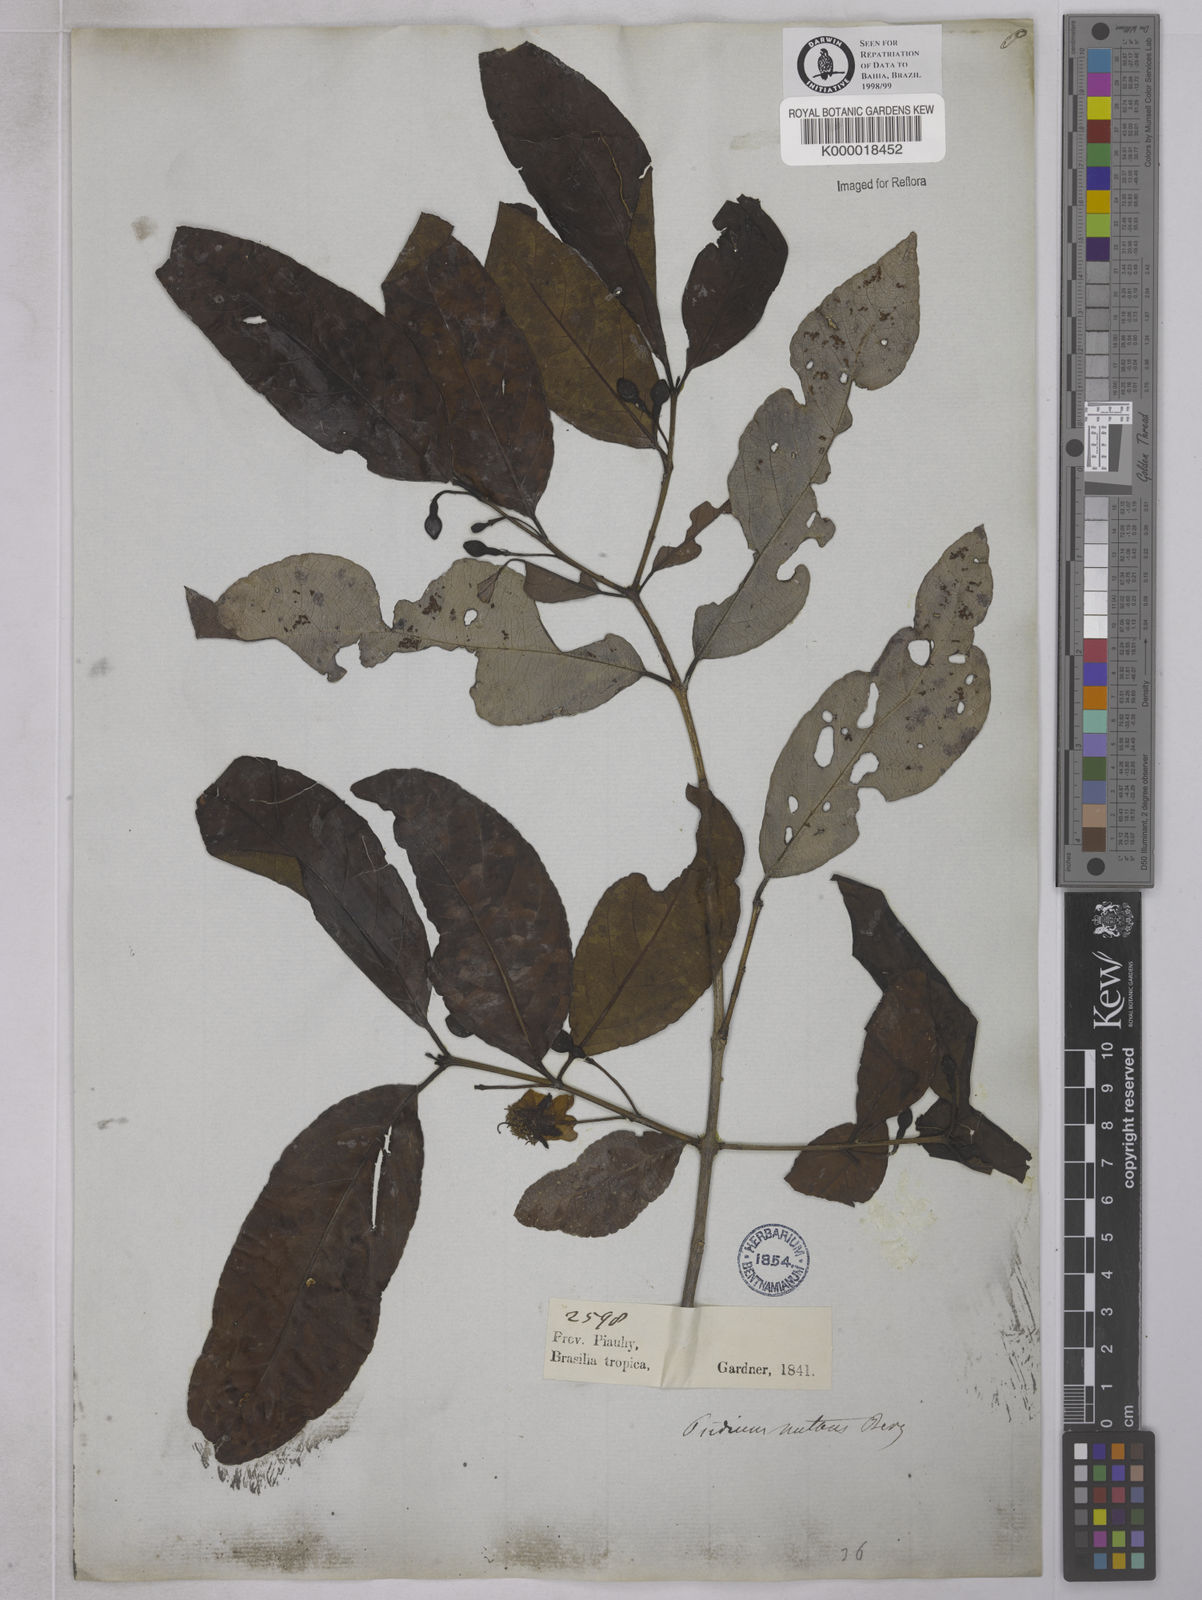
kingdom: Plantae
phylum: Tracheophyta
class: Magnoliopsida
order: Myrtales
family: Myrtaceae
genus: Psidium
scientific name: Psidium nutans
